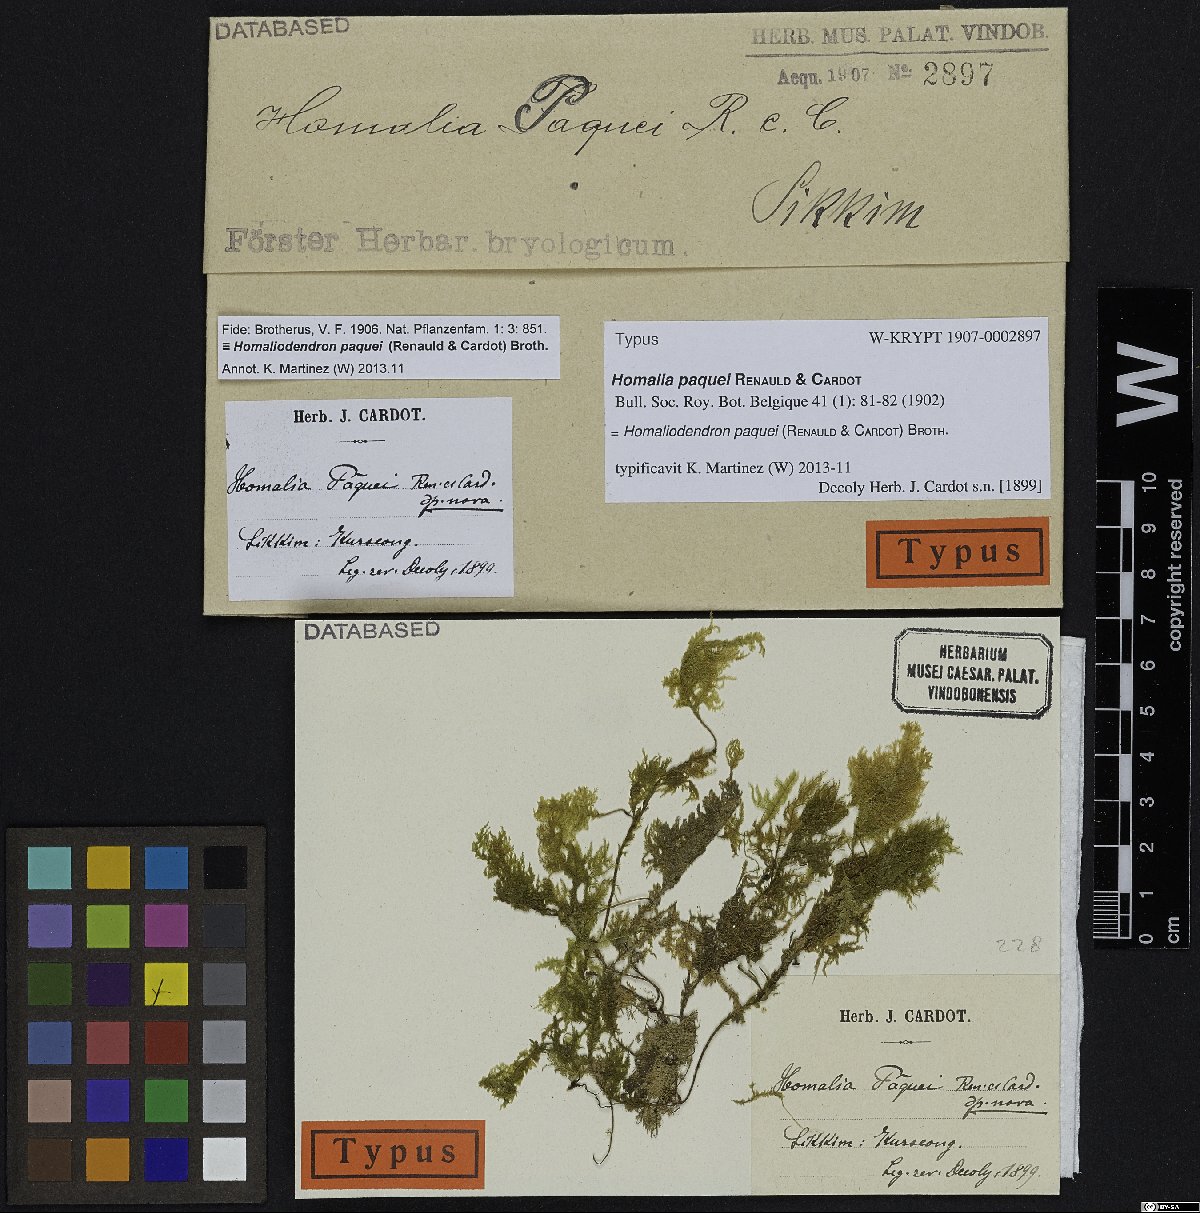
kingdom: Plantae
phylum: Bryophyta
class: Bryopsida
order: Hypnales
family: Neckeraceae
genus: Homaliodendron
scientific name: Homaliodendron paquei
